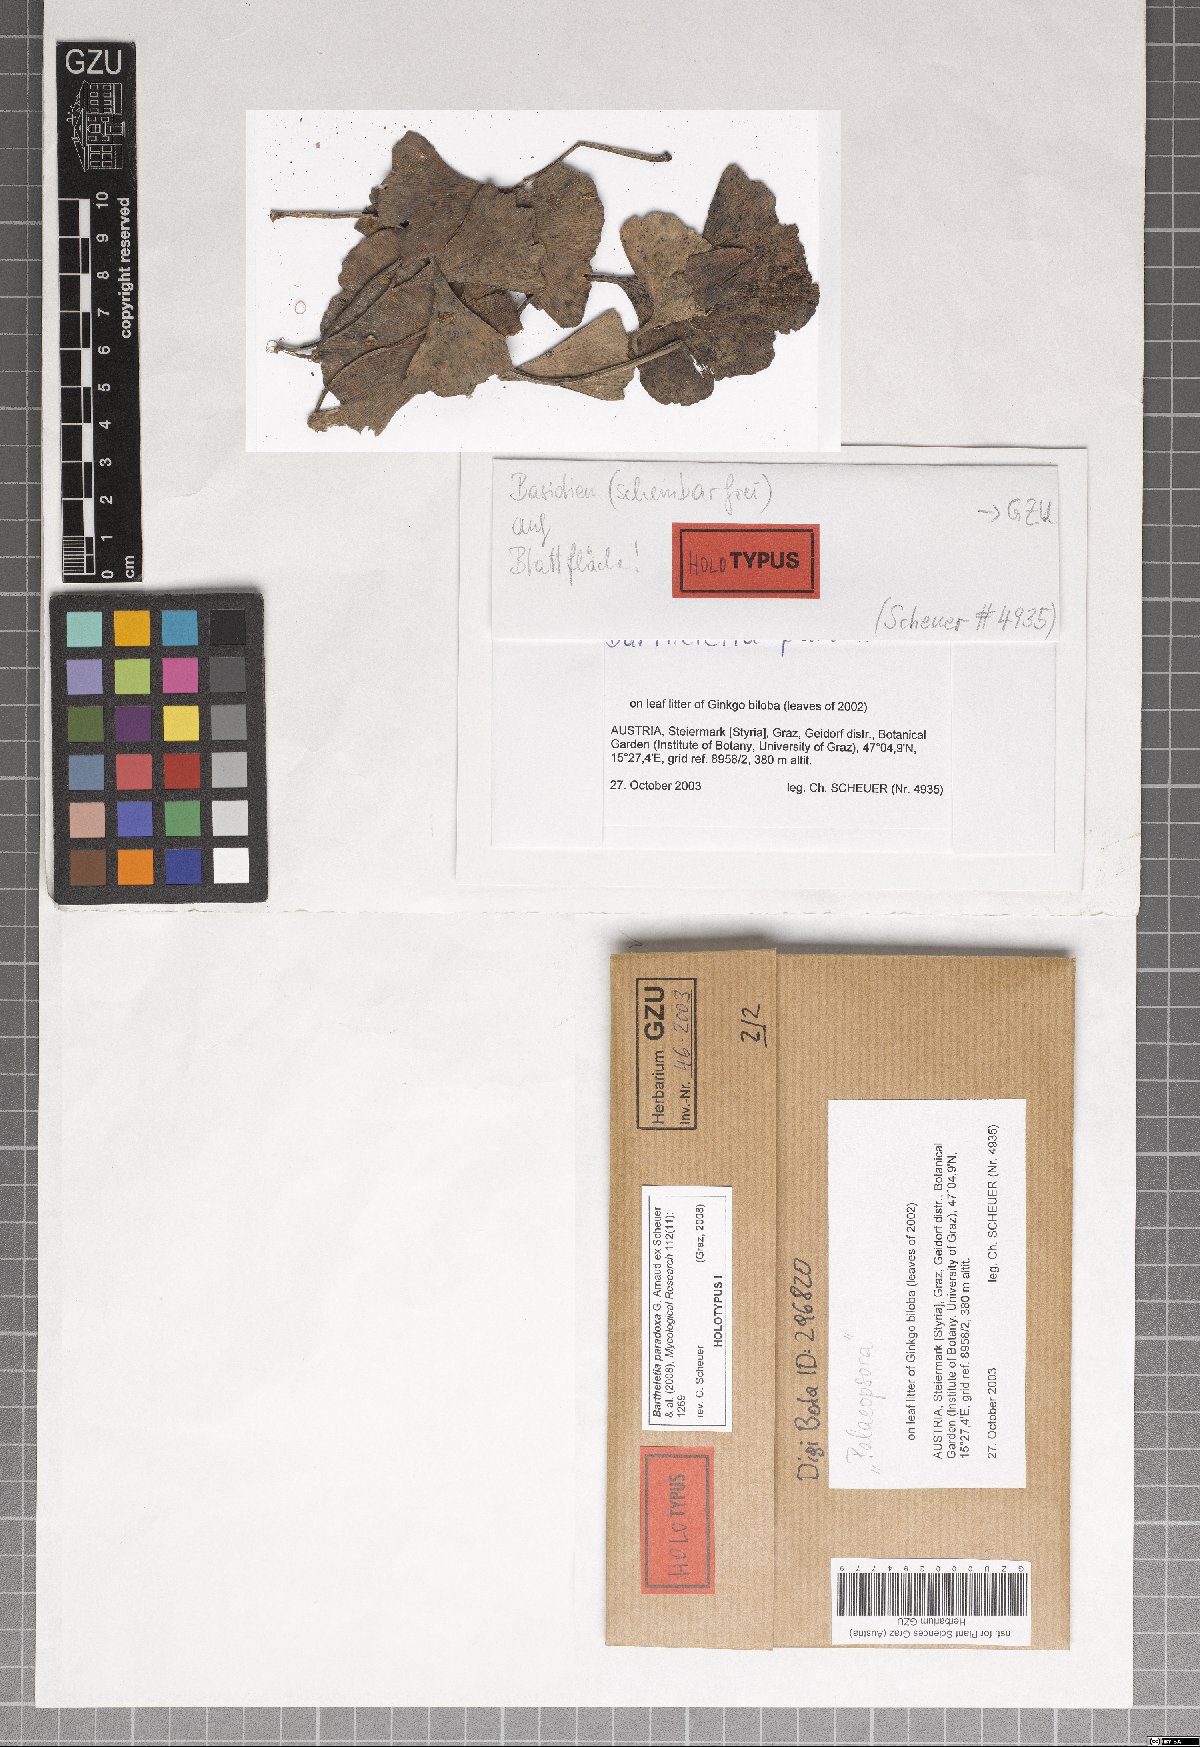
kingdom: Fungi
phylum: Basidiomycota
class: Wallemiomycetes
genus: Bartheletia
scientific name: Bartheletia paradoxa
